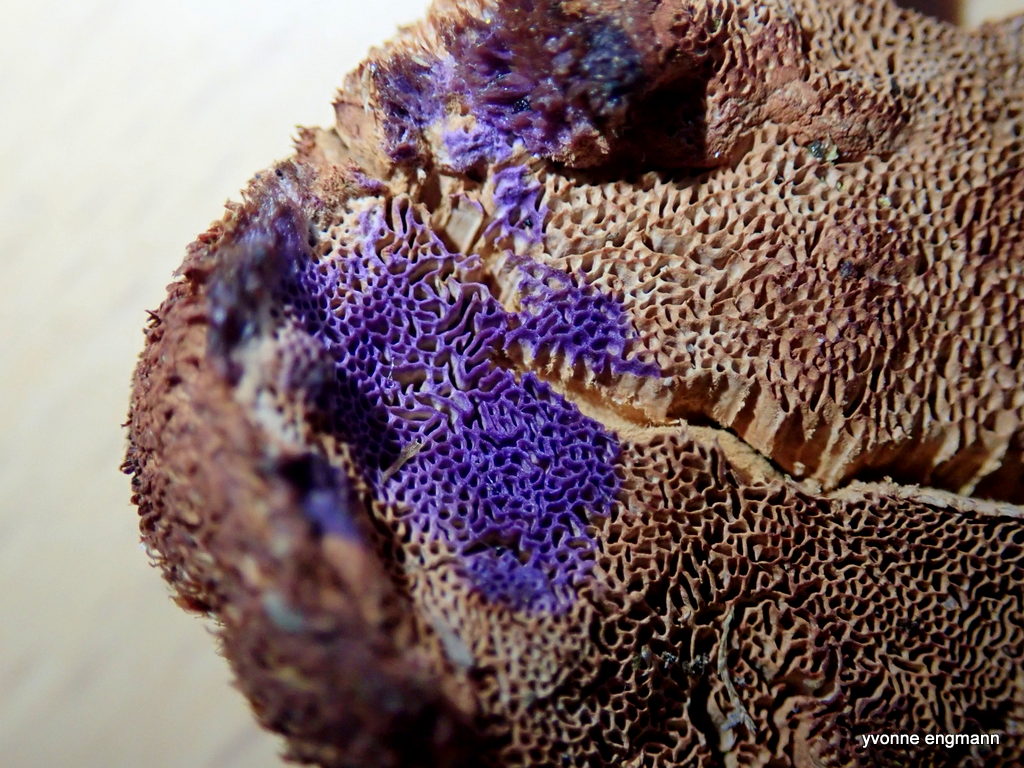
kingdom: Fungi
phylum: Basidiomycota
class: Agaricomycetes
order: Polyporales
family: Phanerochaetaceae
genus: Hapalopilus
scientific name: Hapalopilus rutilans
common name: rødlig okkerporesvamp
